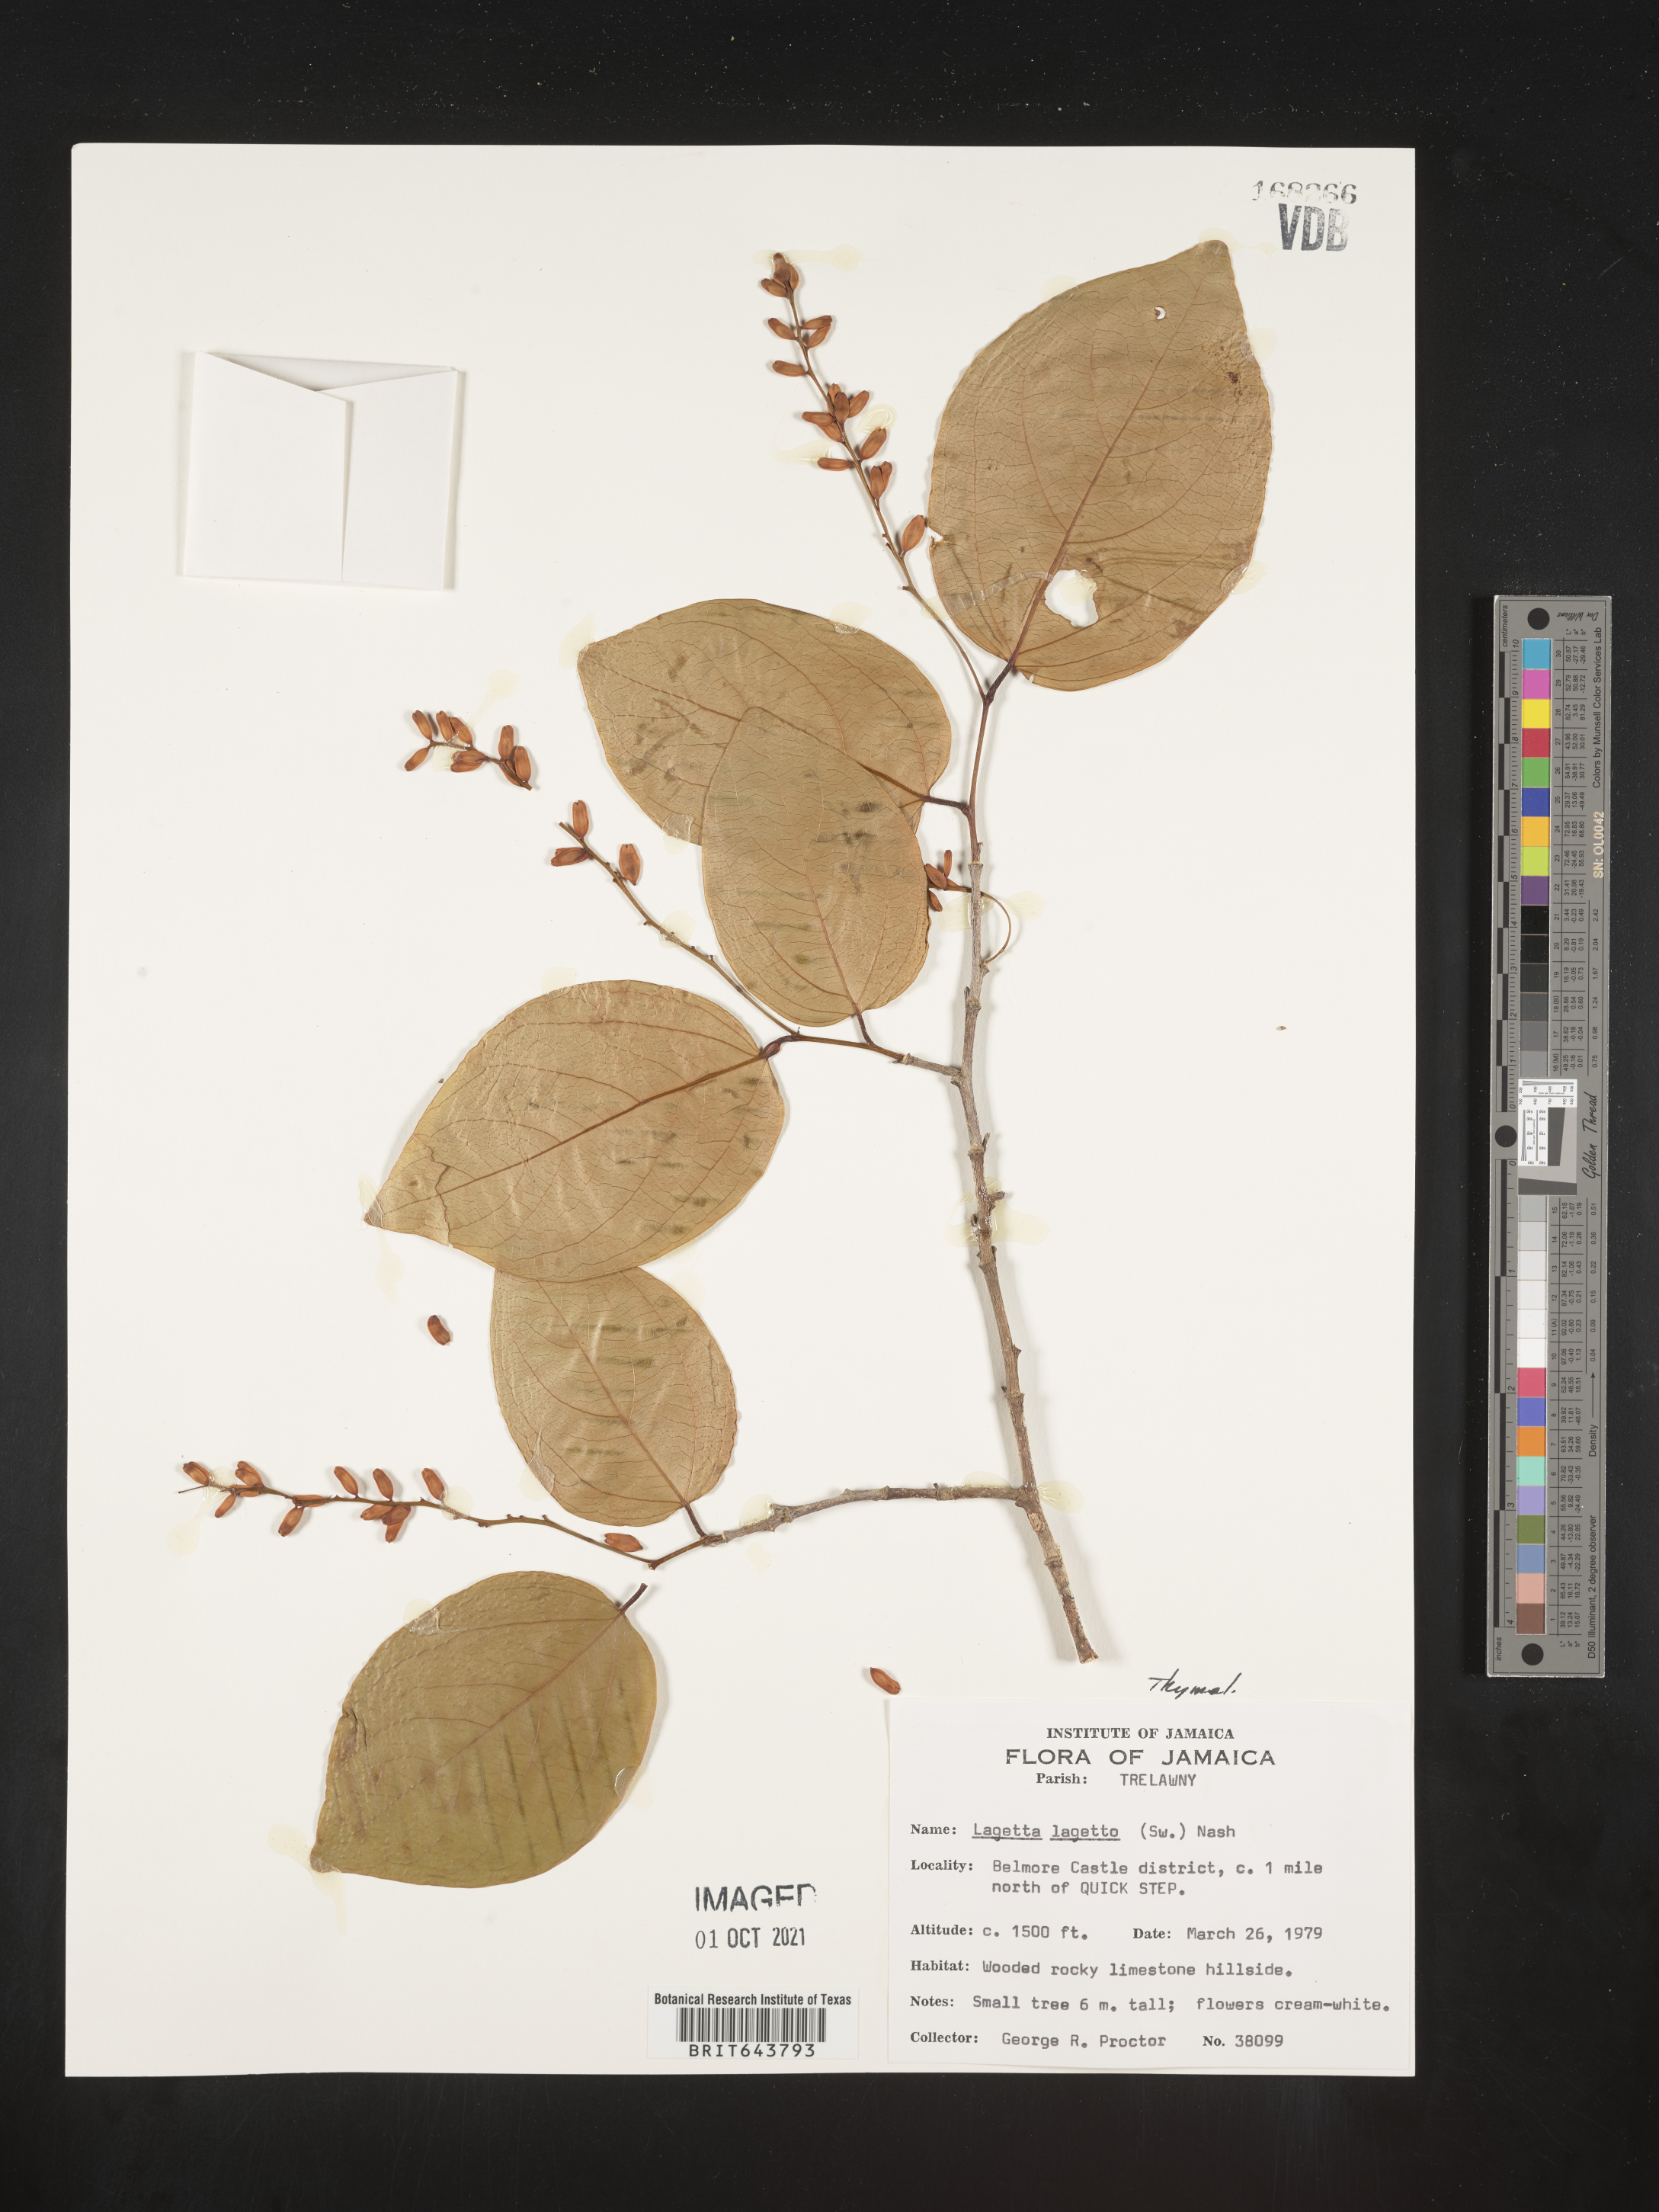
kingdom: Plantae
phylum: Tracheophyta
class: Magnoliopsida
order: Malvales
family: Thymelaeaceae
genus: Lagetta
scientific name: Lagetta
